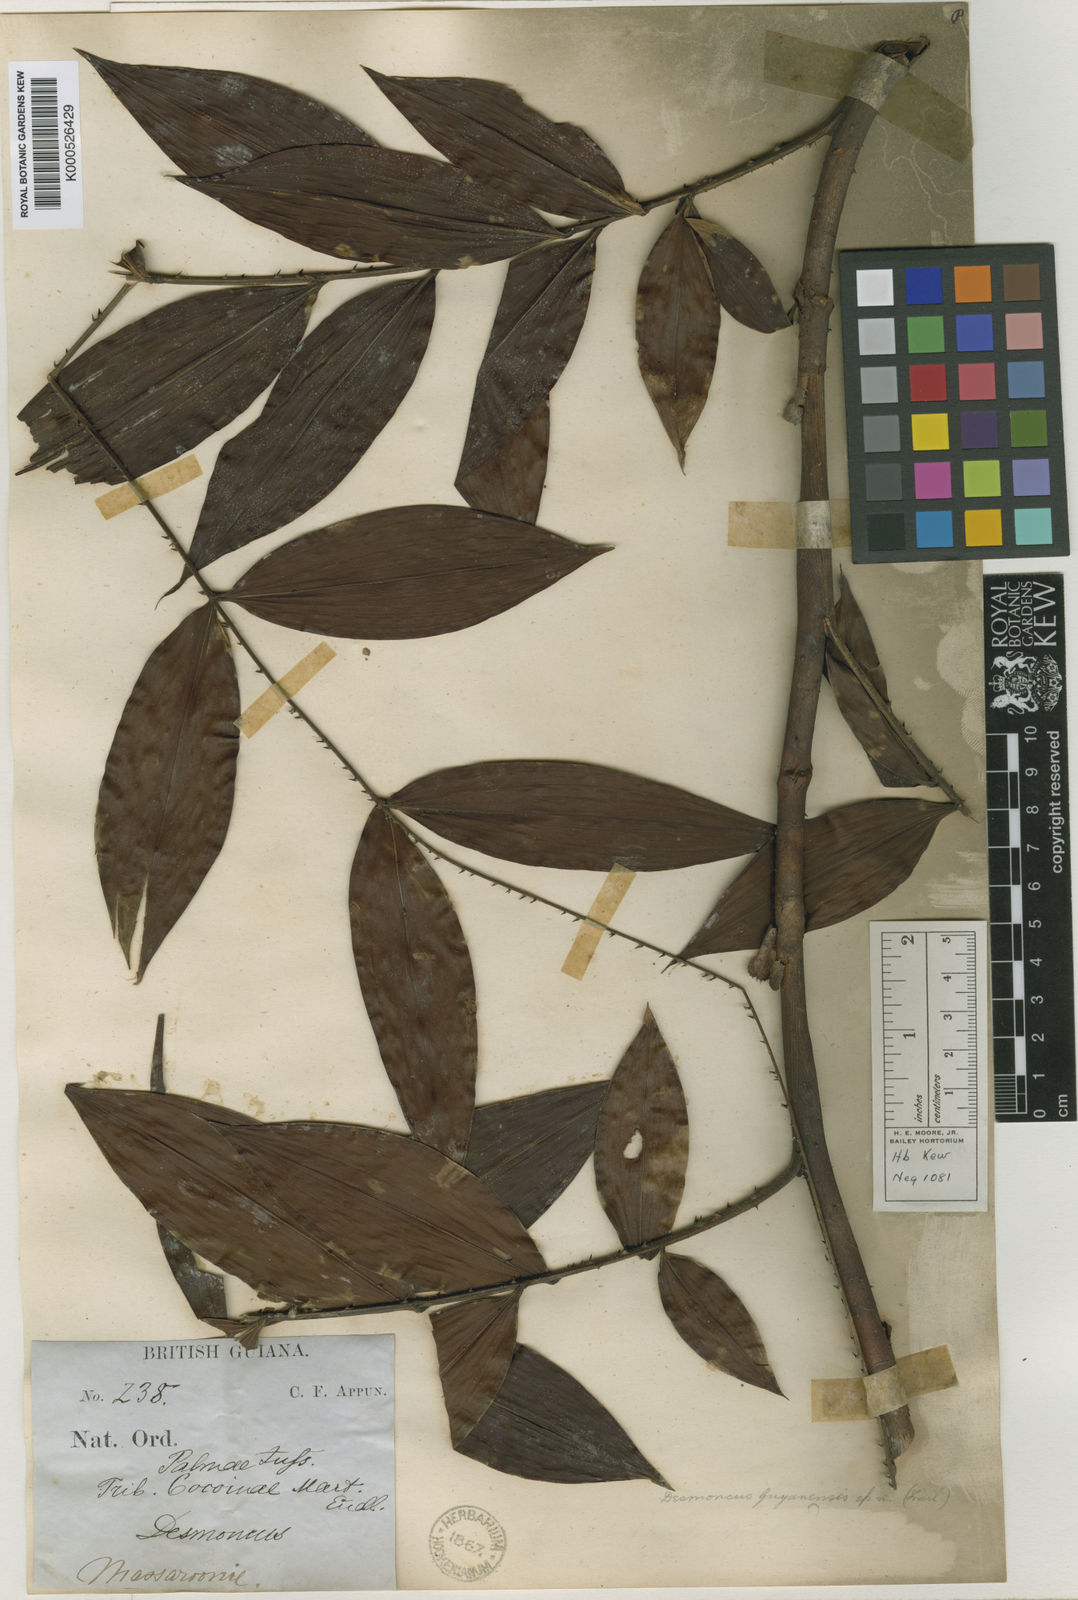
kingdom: Plantae
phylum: Tracheophyta
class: Liliopsida
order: Arecales
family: Arecaceae
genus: Desmoncus
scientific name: Desmoncus
